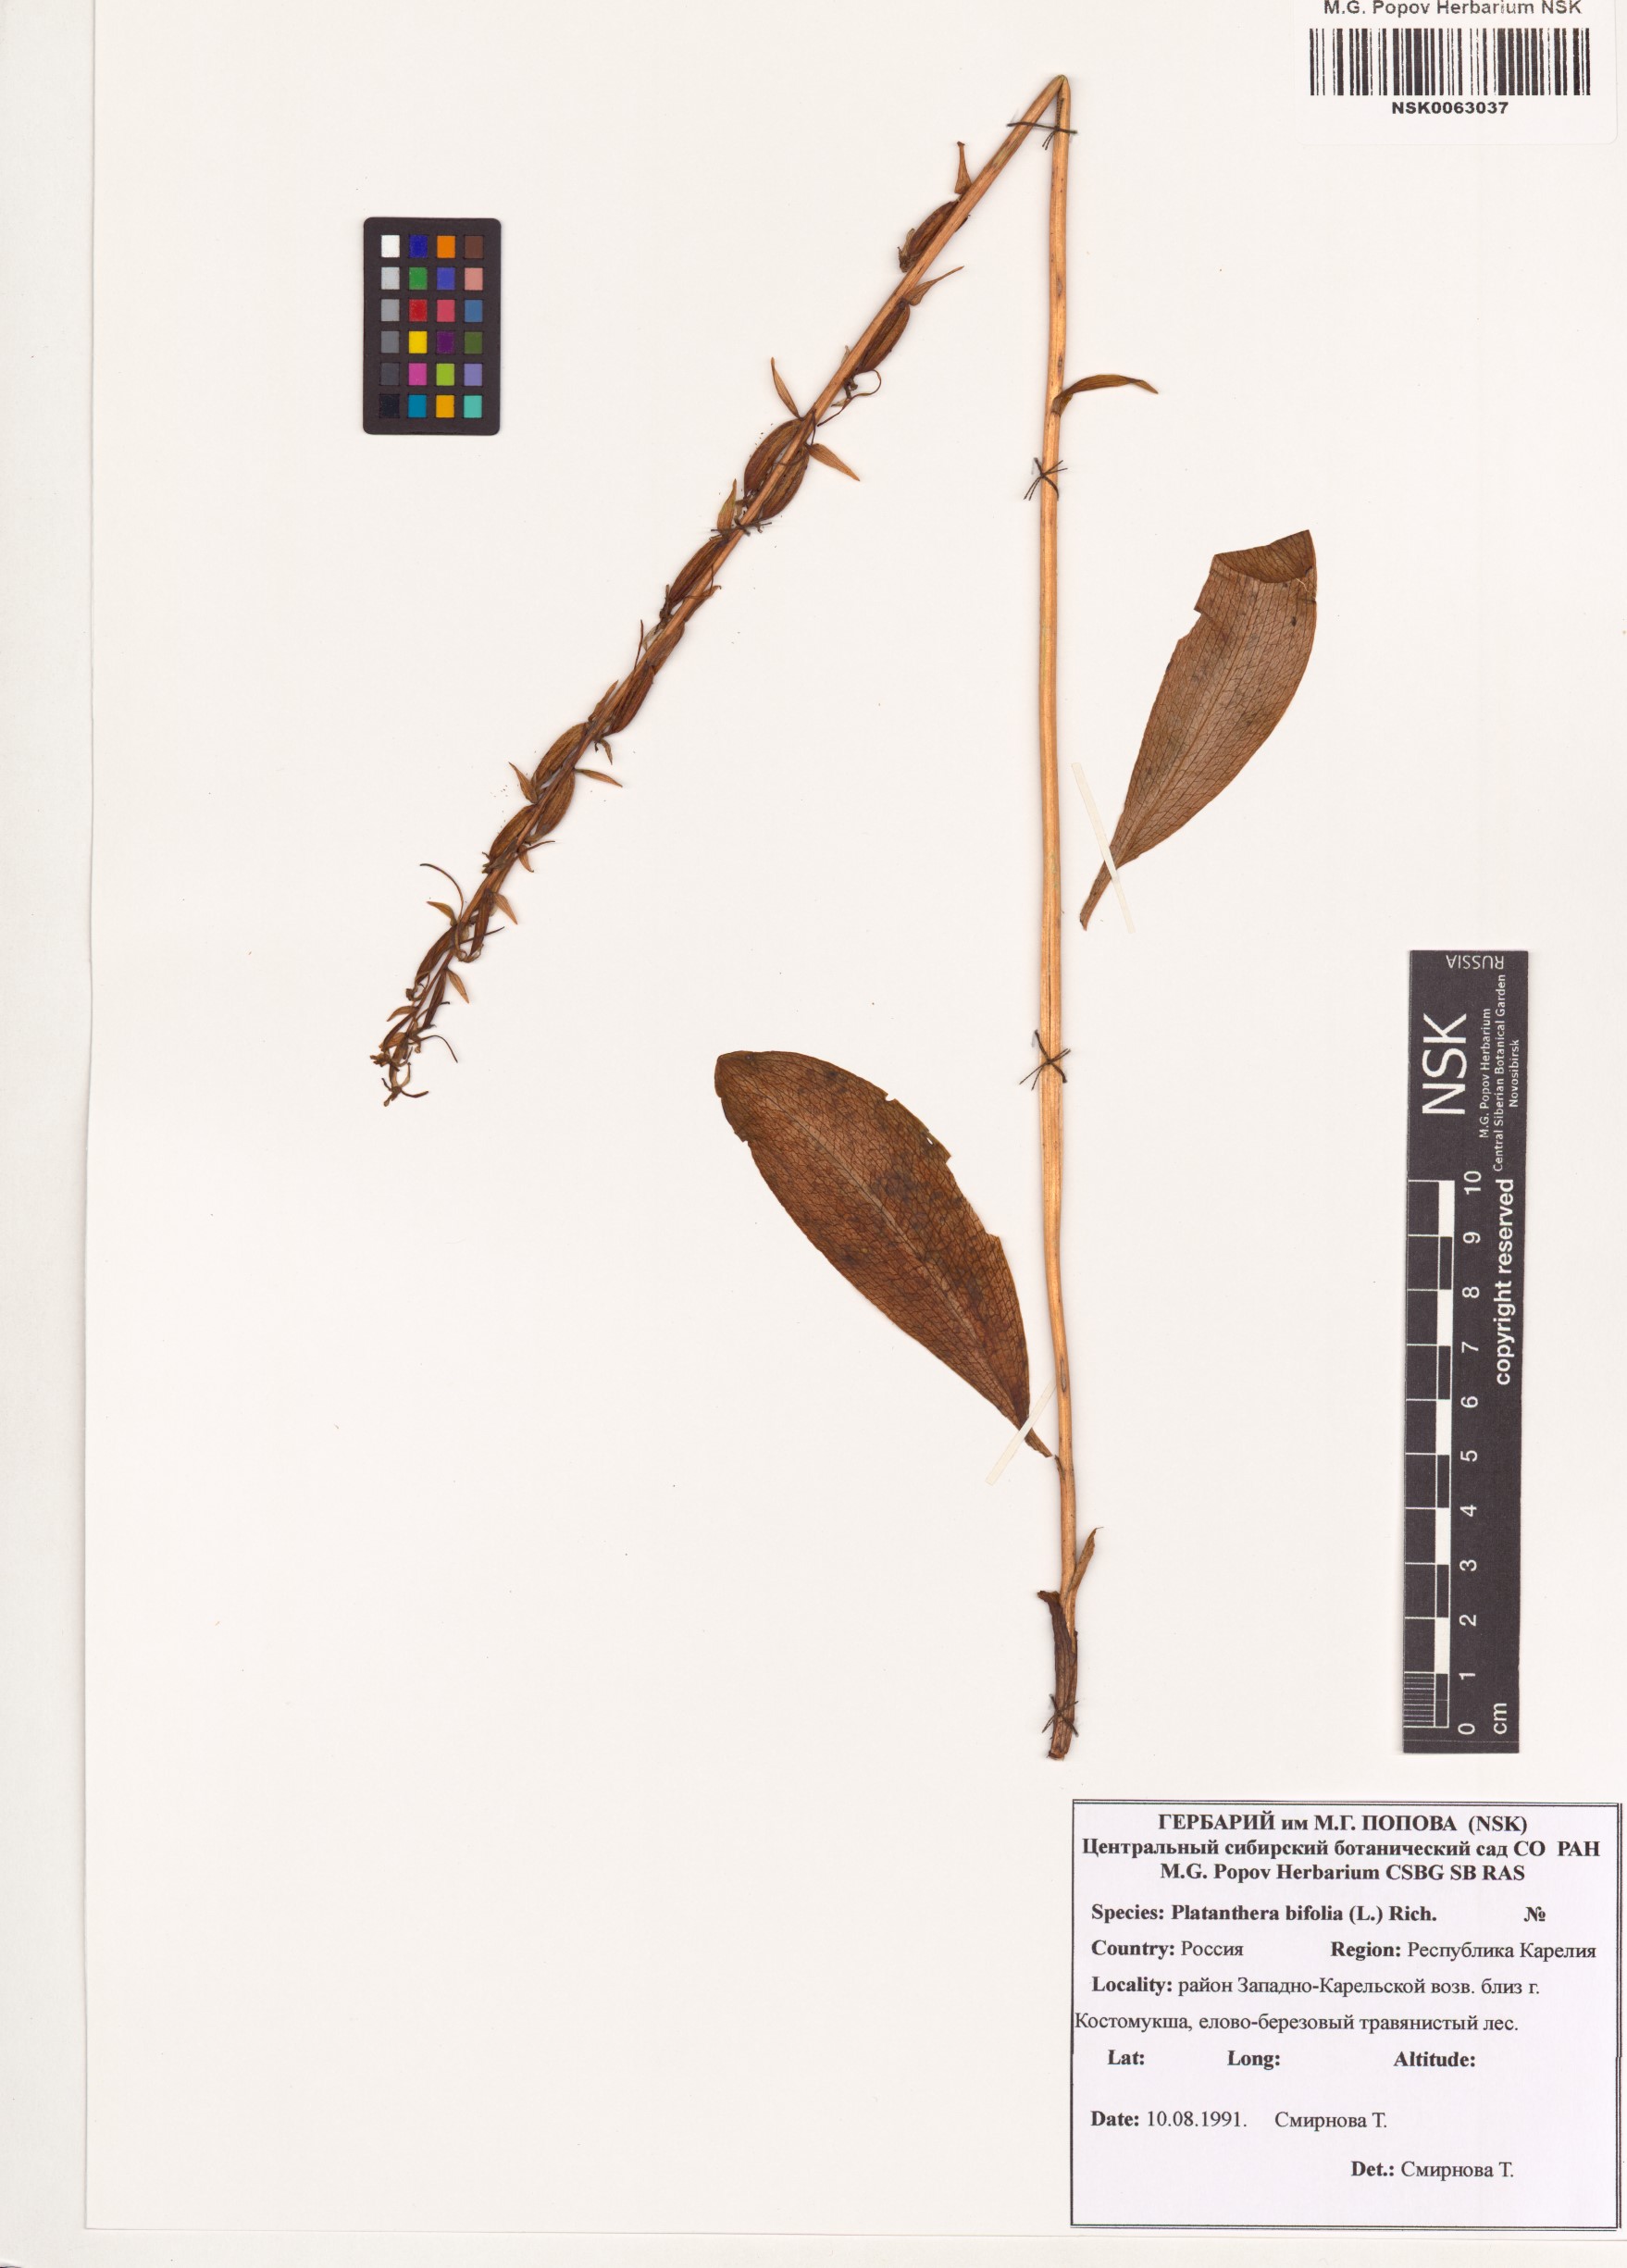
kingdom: Plantae
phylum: Tracheophyta
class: Liliopsida
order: Asparagales
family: Orchidaceae
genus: Platanthera
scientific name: Platanthera bifolia
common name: Lesser butterfly-orchid
